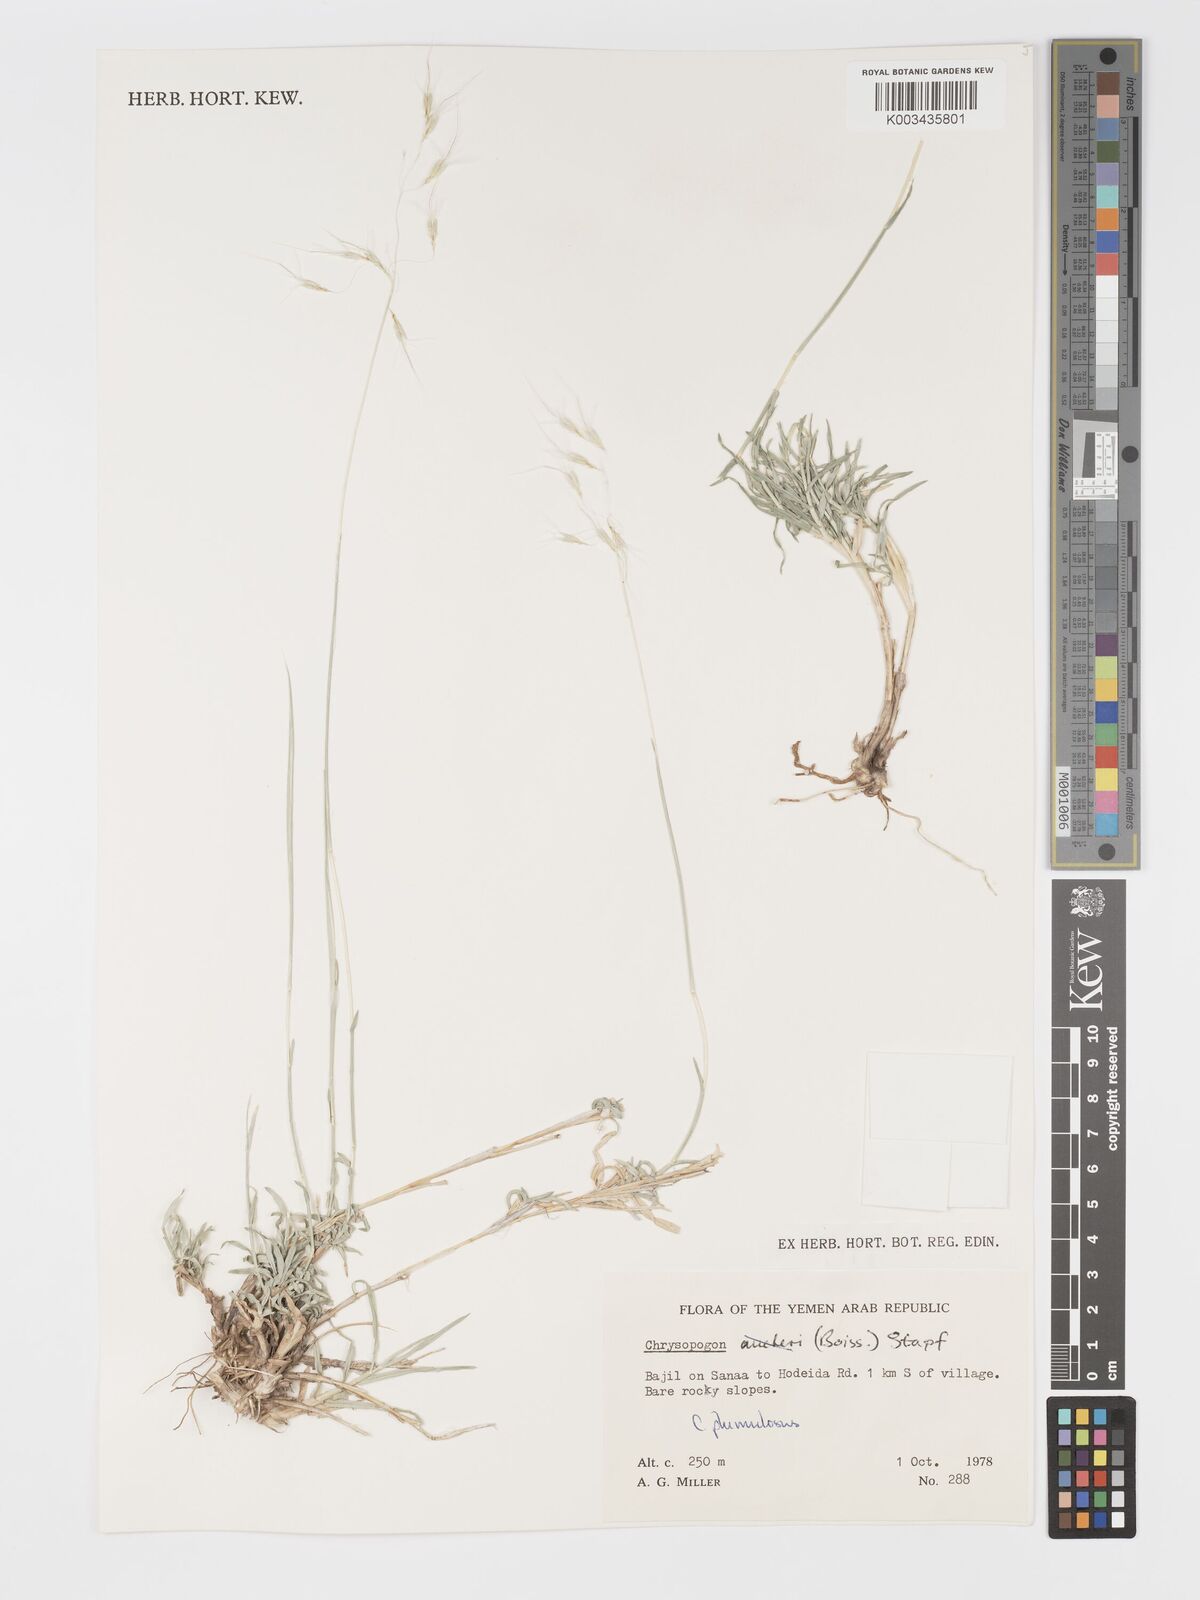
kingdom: Plantae
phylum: Tracheophyta
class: Liliopsida
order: Poales
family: Poaceae
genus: Chrysopogon
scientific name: Chrysopogon plumulosus
